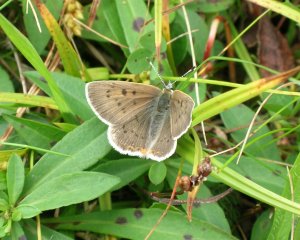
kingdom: Animalia
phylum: Arthropoda
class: Insecta
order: Lepidoptera
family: Sesiidae
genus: Sesia
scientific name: Sesia Lycaena epixanthe
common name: Bog Copper
